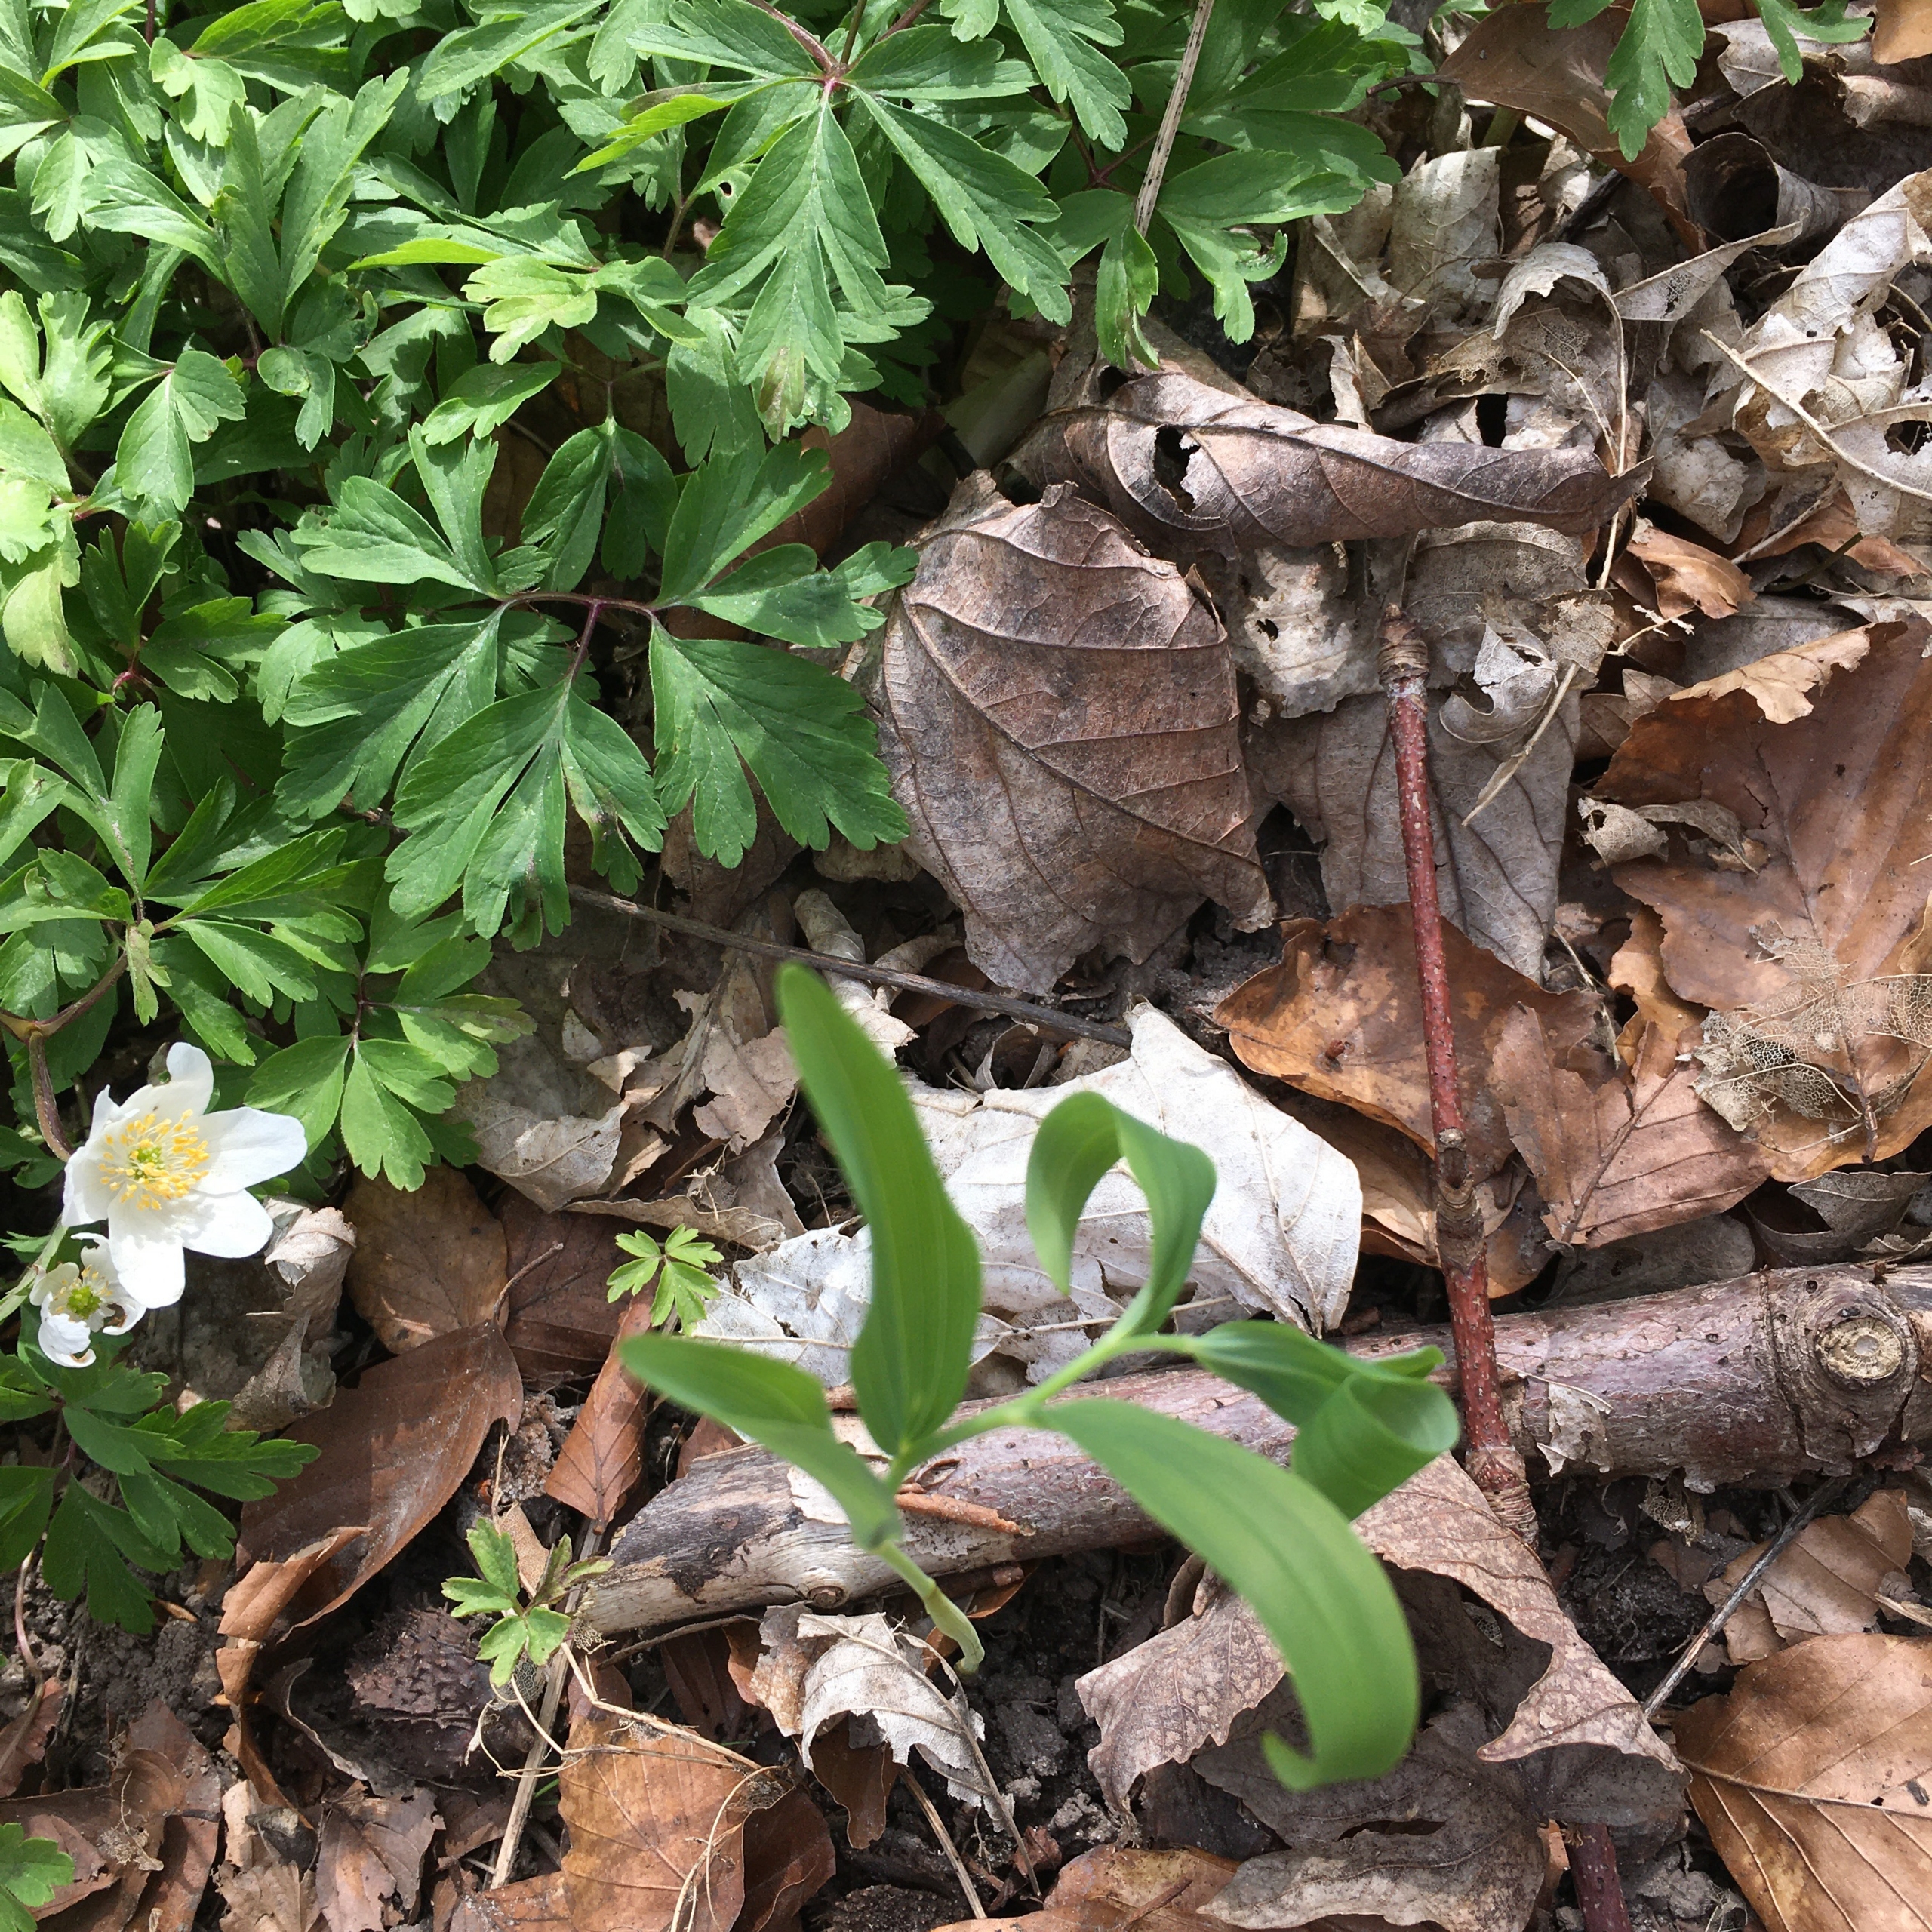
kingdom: Plantae
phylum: Tracheophyta
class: Liliopsida
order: Asparagales
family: Asparagaceae
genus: Polygonatum
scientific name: Polygonatum multiflorum
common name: Stor konval
